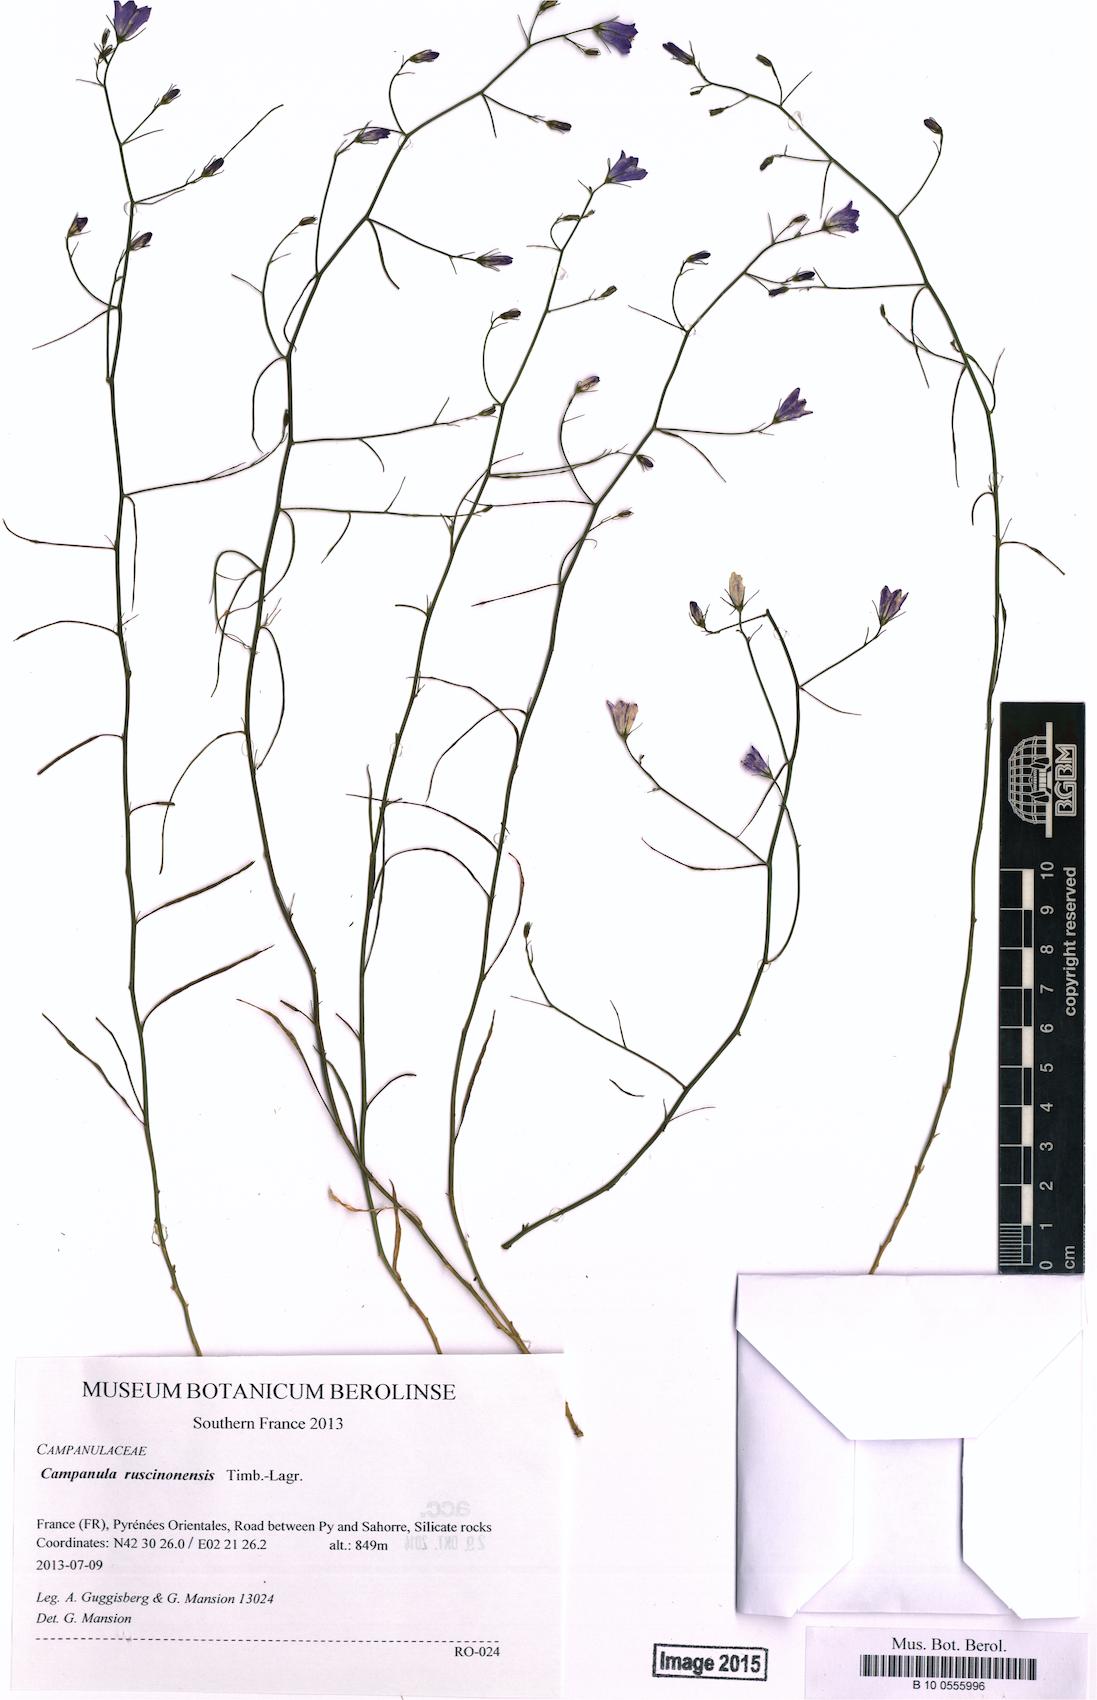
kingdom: Plantae
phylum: Tracheophyta
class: Magnoliopsida
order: Asterales
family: Campanulaceae
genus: Campanula
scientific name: Campanula ruscinonensis
